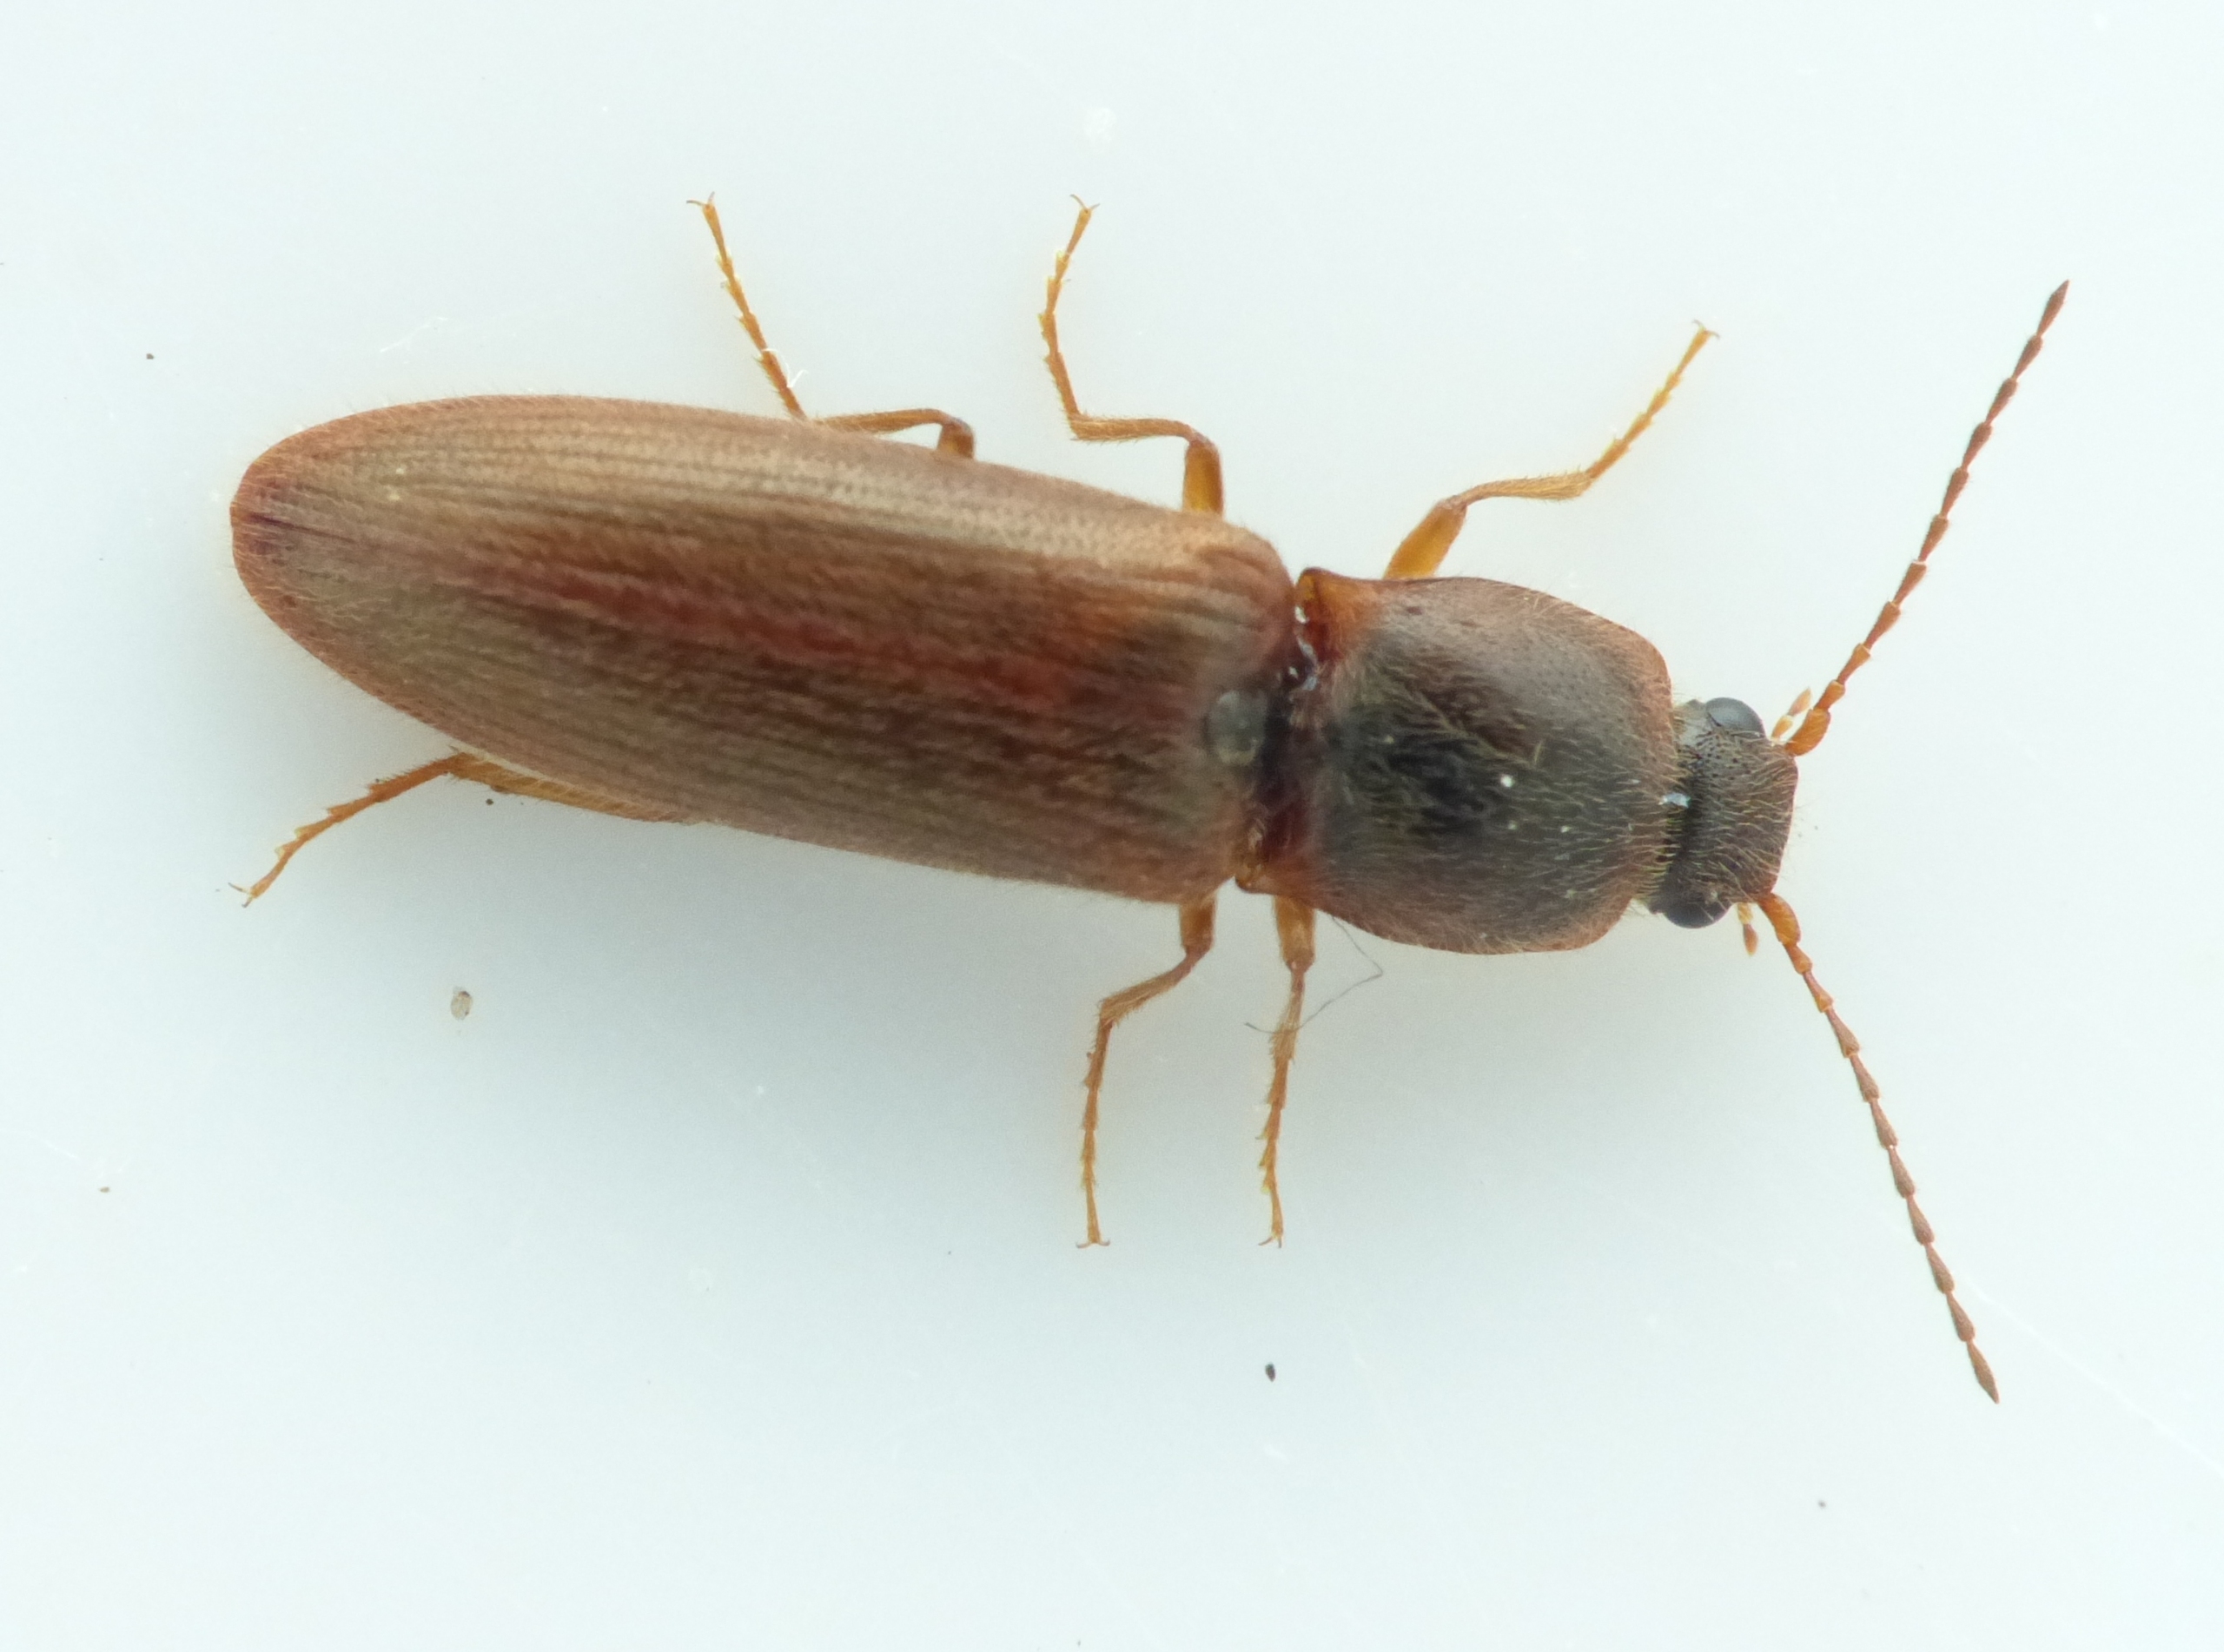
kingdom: Animalia
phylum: Arthropoda
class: Insecta
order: Coleoptera
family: Elateridae
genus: Athous
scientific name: Athous subfuscus
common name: Liden busksmælder
